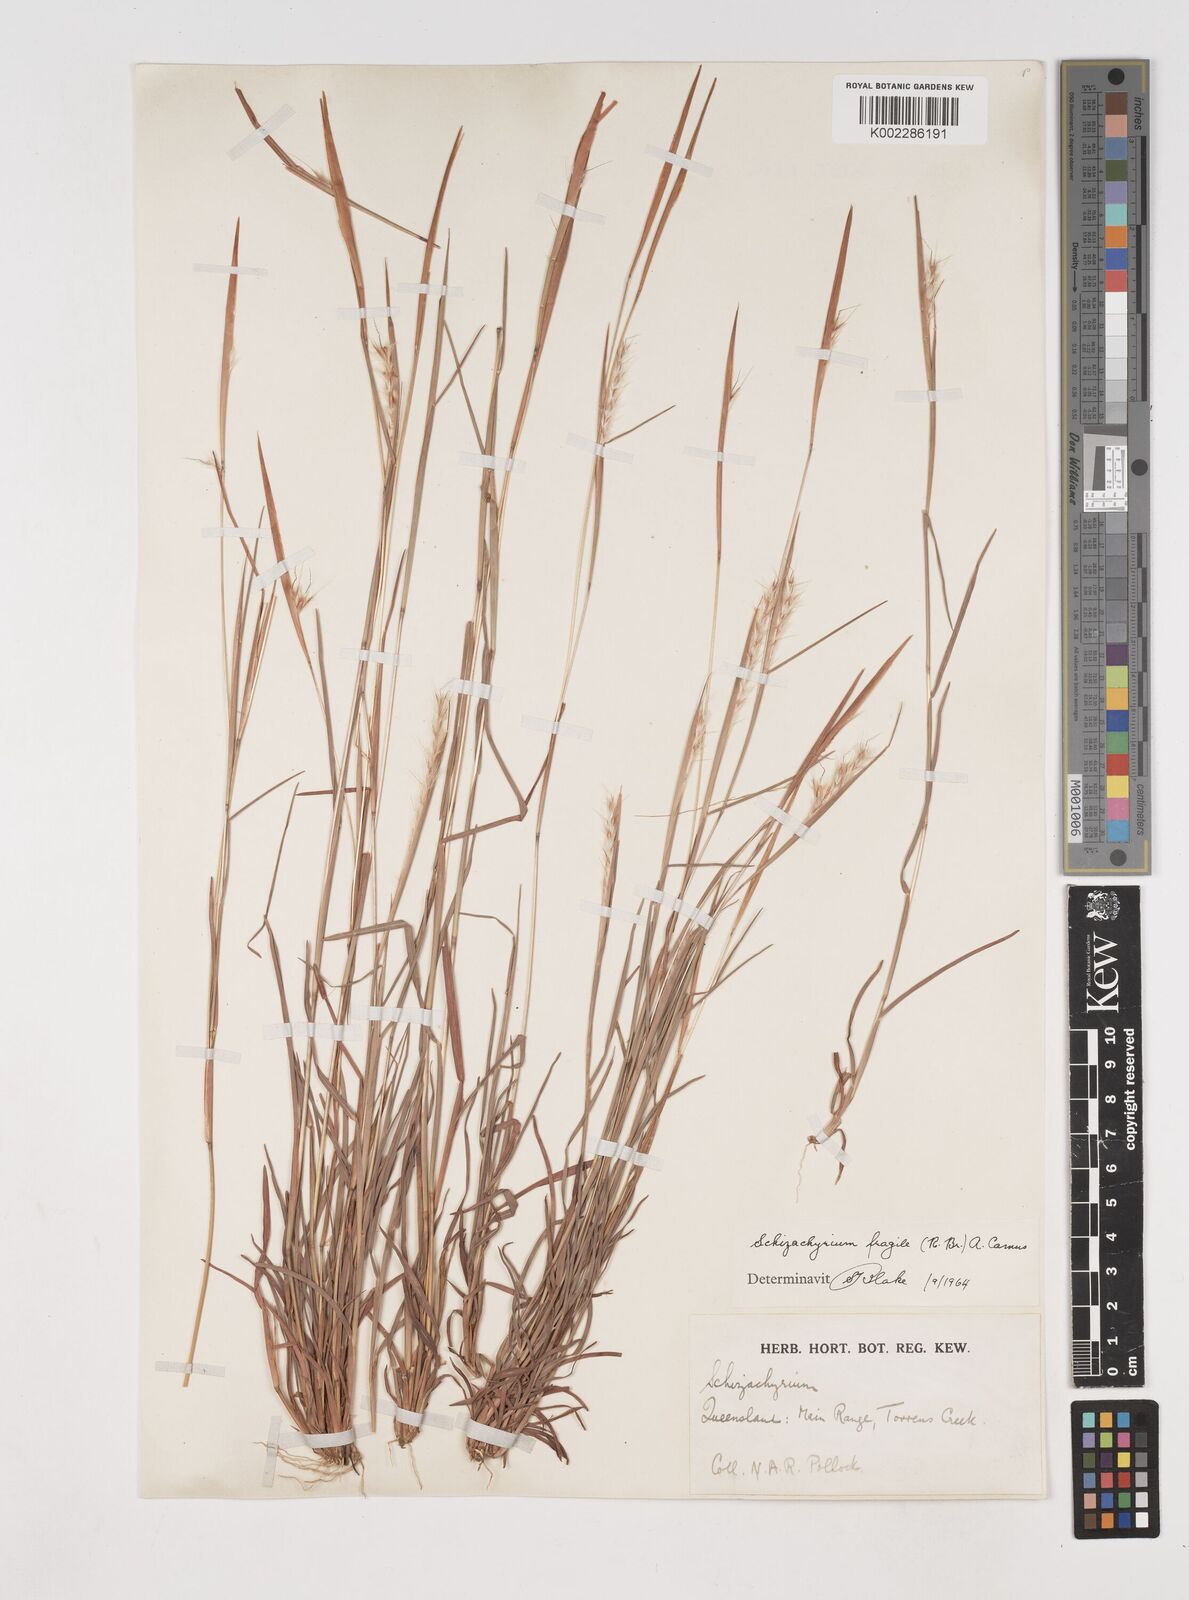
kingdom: Plantae
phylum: Tracheophyta
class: Liliopsida
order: Poales
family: Poaceae
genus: Schizachyrium
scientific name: Schizachyrium fragile
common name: Red spathe grass
